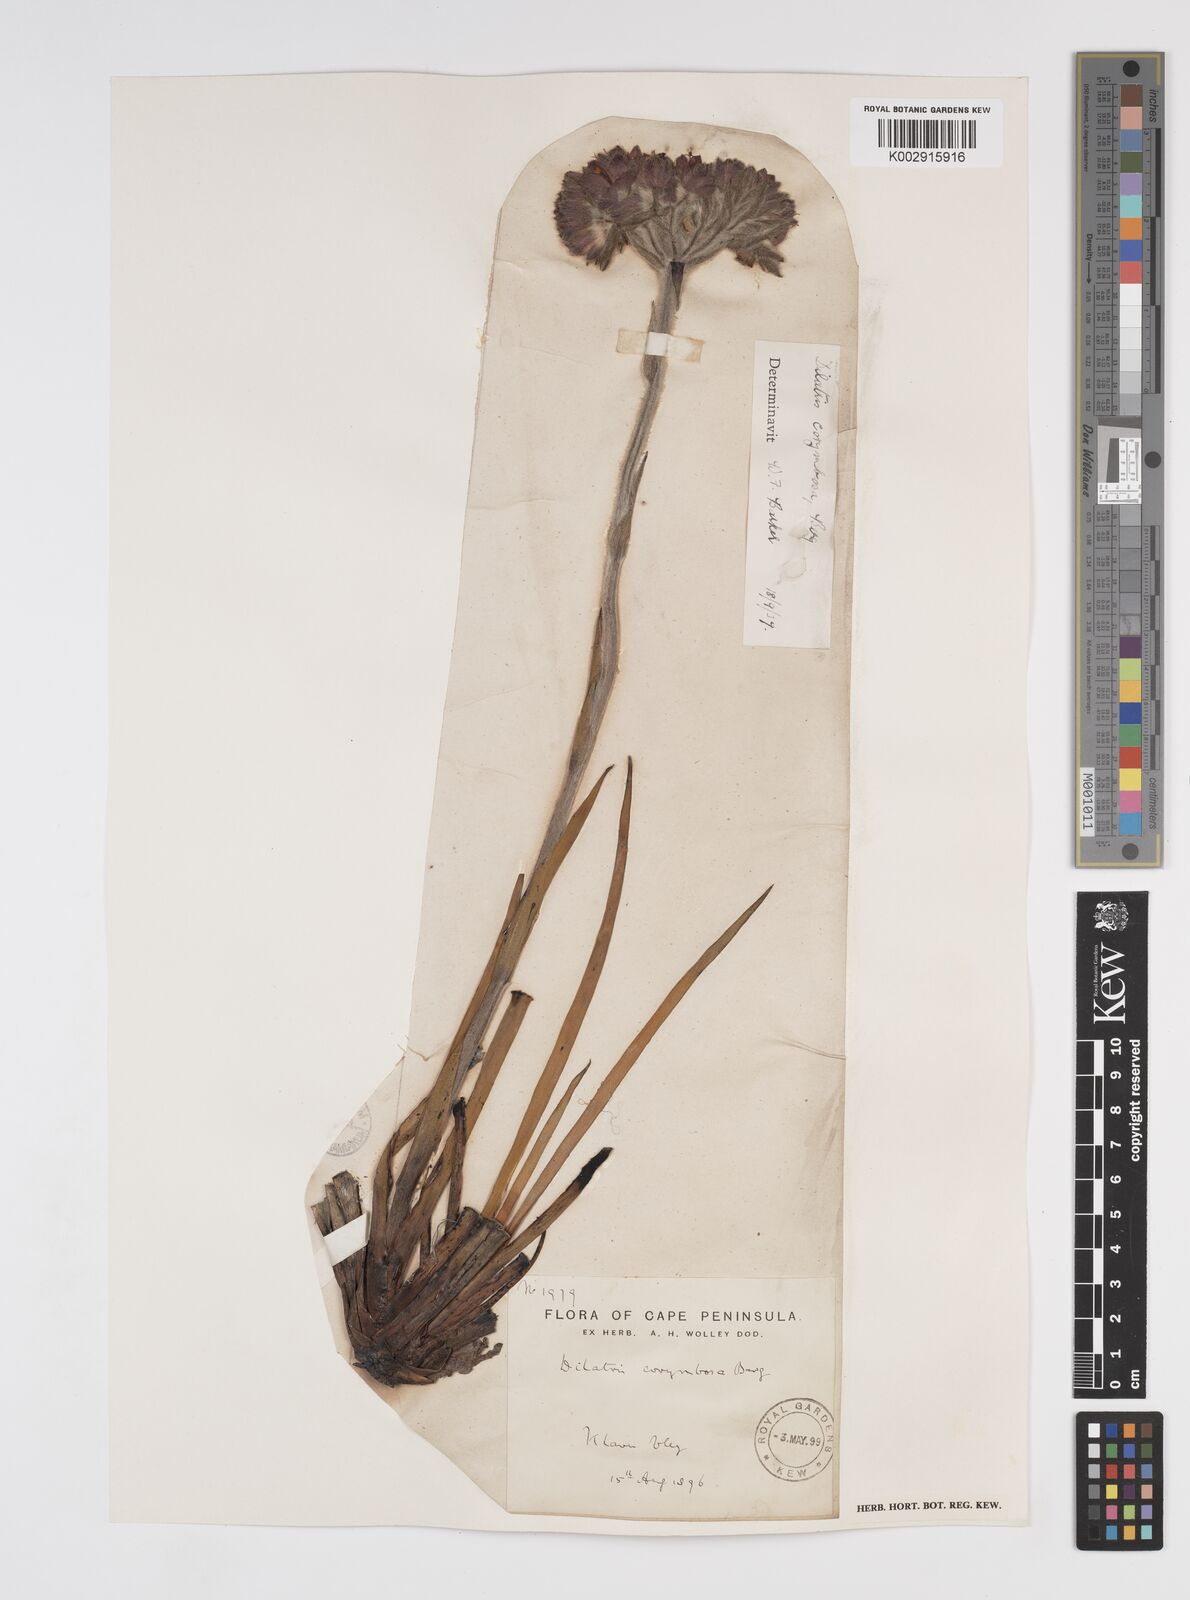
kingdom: Plantae
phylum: Tracheophyta
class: Liliopsida
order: Commelinales
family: Haemodoraceae
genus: Dilatris
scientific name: Dilatris corymbosa
